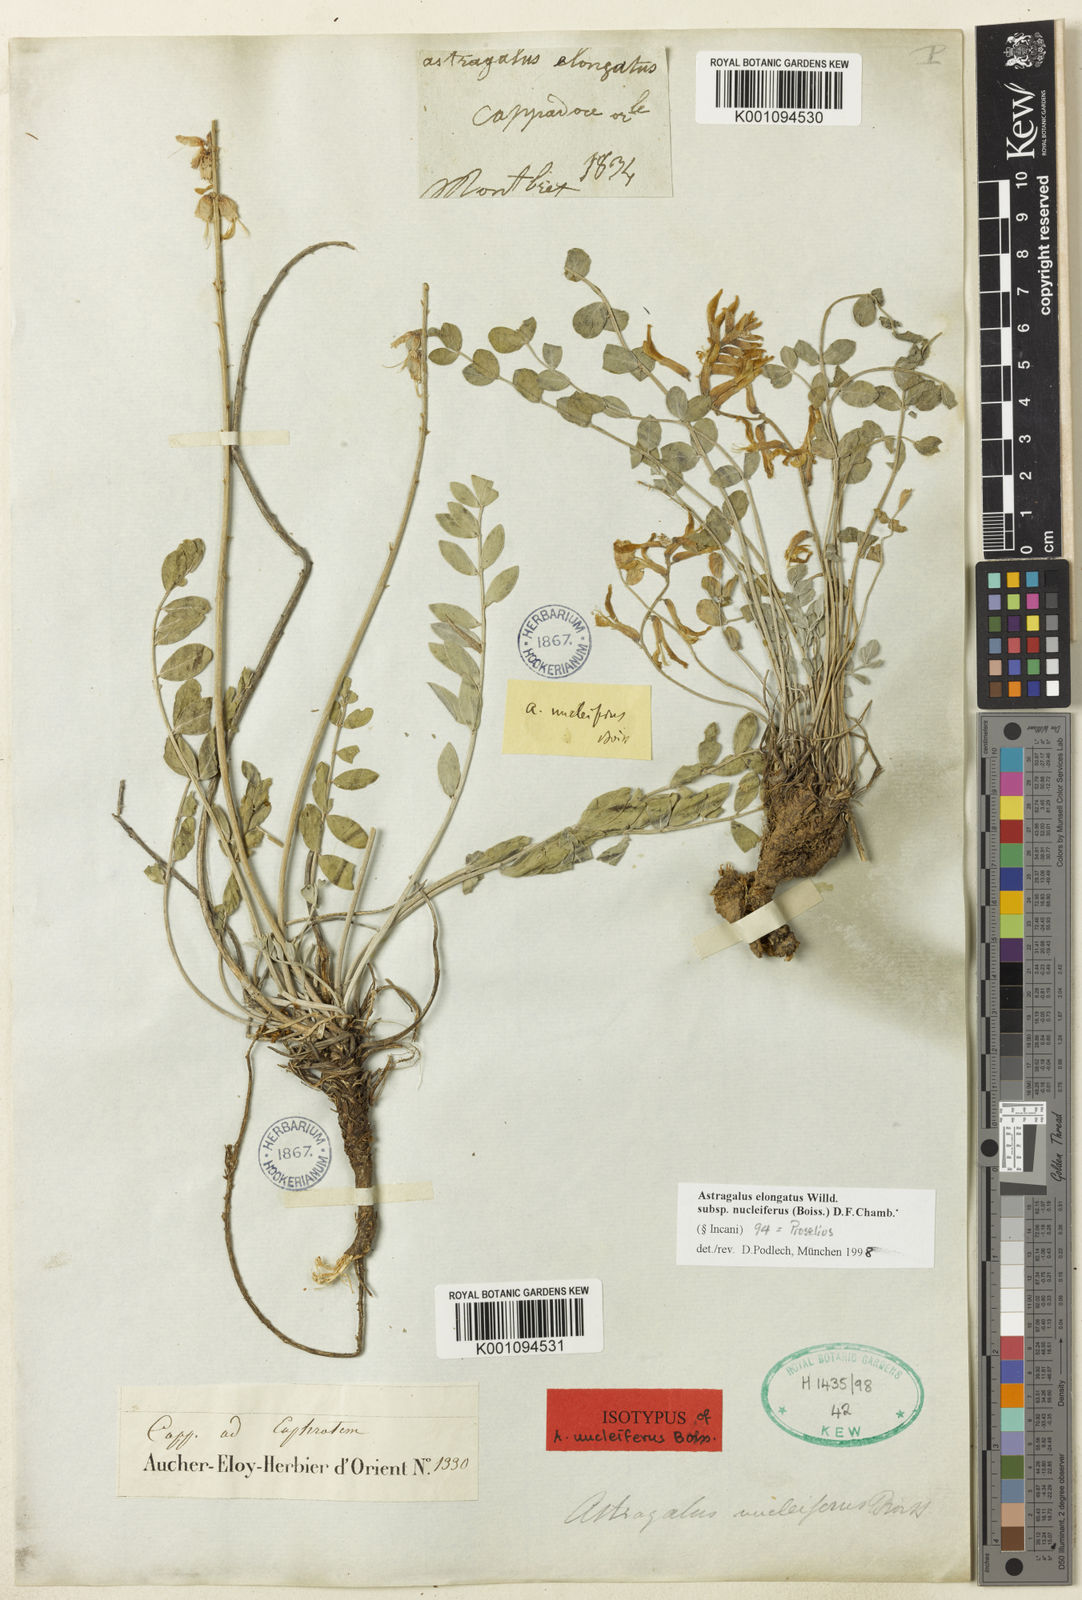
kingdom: Plantae
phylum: Tracheophyta
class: Magnoliopsida
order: Fabales
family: Fabaceae
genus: Astragalus
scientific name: Astragalus elongatus
